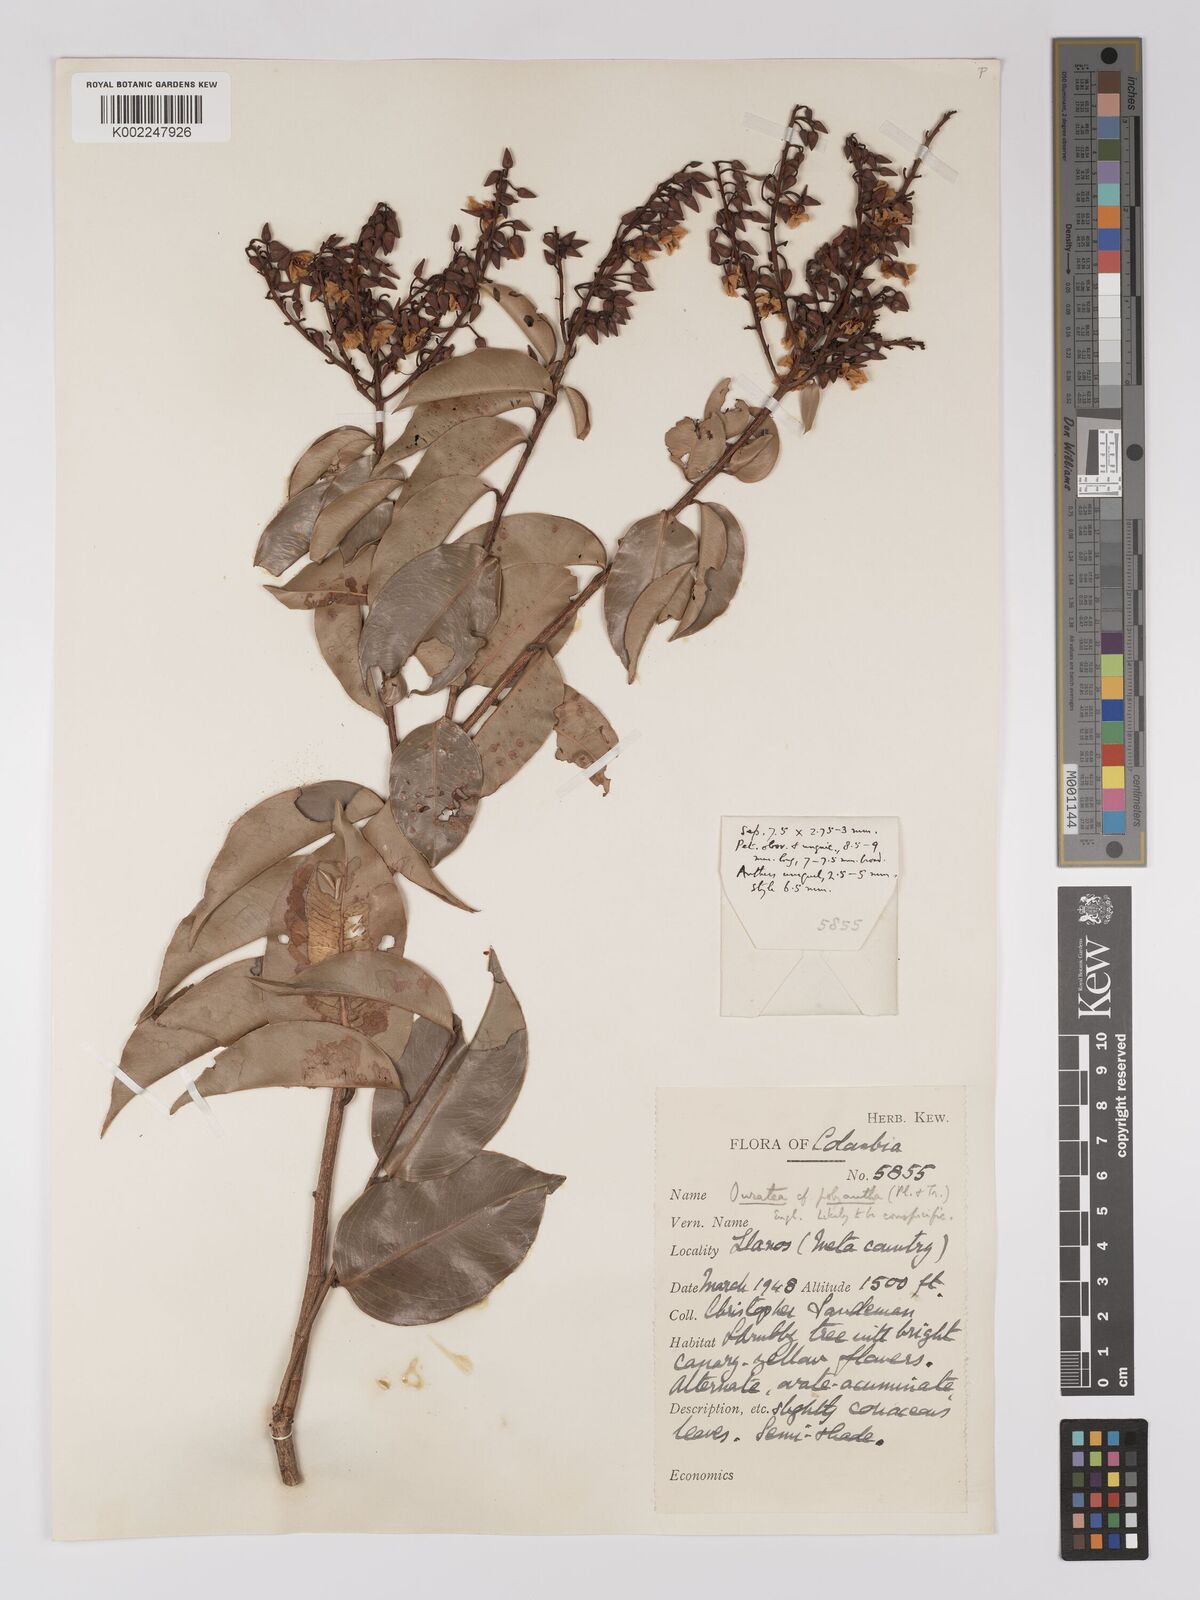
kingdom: Plantae
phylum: Tracheophyta
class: Magnoliopsida
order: Malpighiales
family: Ochnaceae
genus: Ouratea
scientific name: Ouratea polyantha
